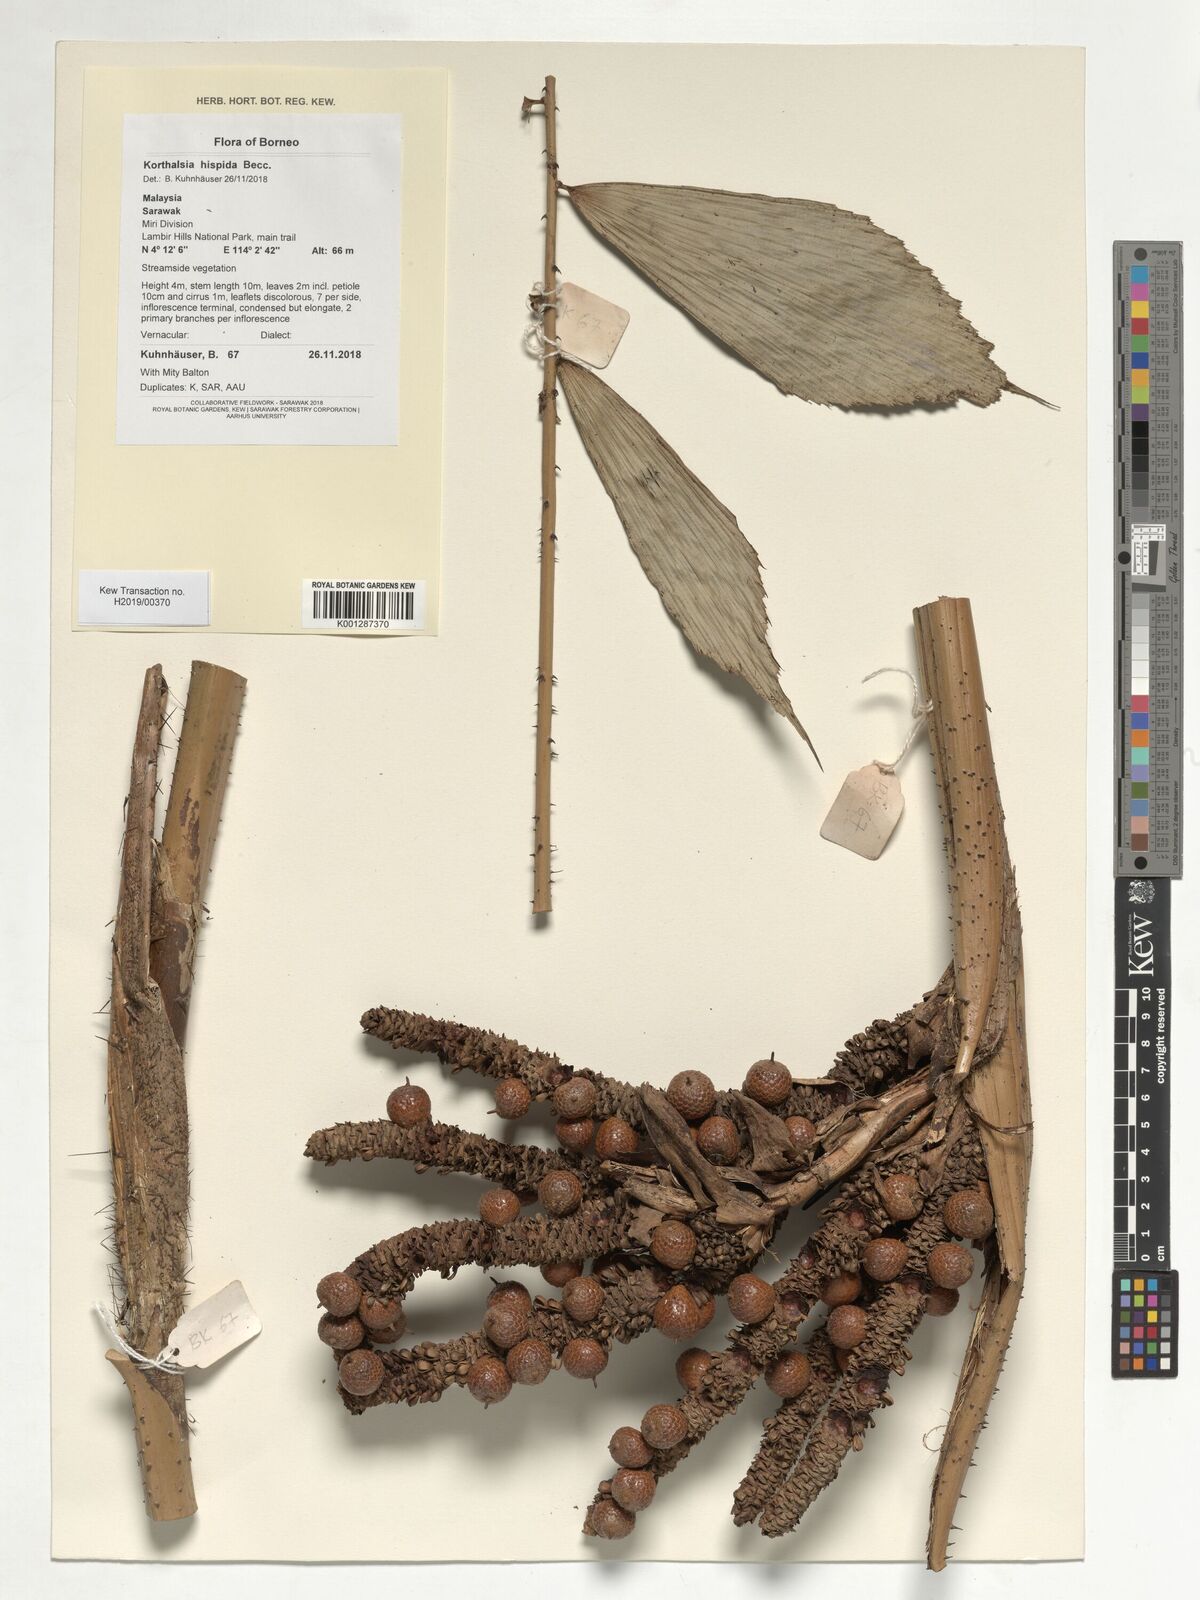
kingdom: Plantae
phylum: Tracheophyta
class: Liliopsida
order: Arecales
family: Arecaceae
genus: Korthalsia
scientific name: Korthalsia hispida
